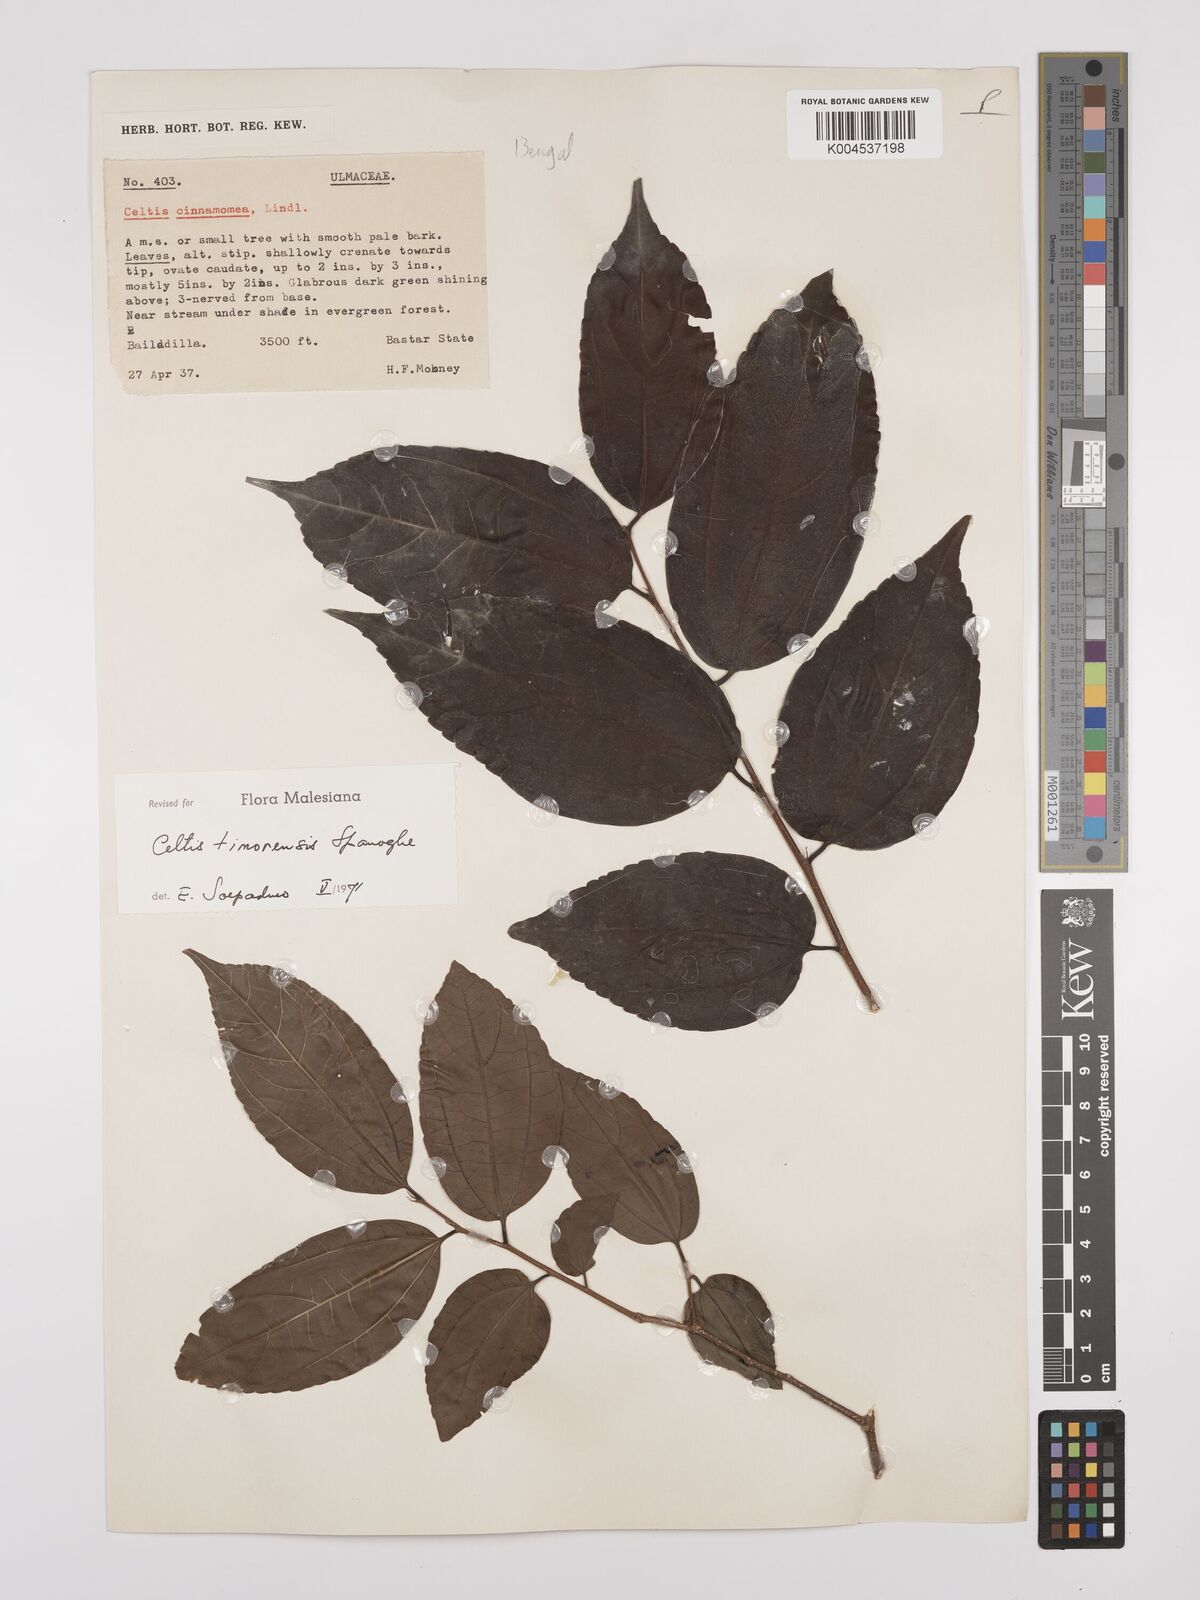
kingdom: Plantae
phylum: Tracheophyta
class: Magnoliopsida
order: Rosales
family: Cannabaceae
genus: Celtis
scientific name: Celtis timorensis
